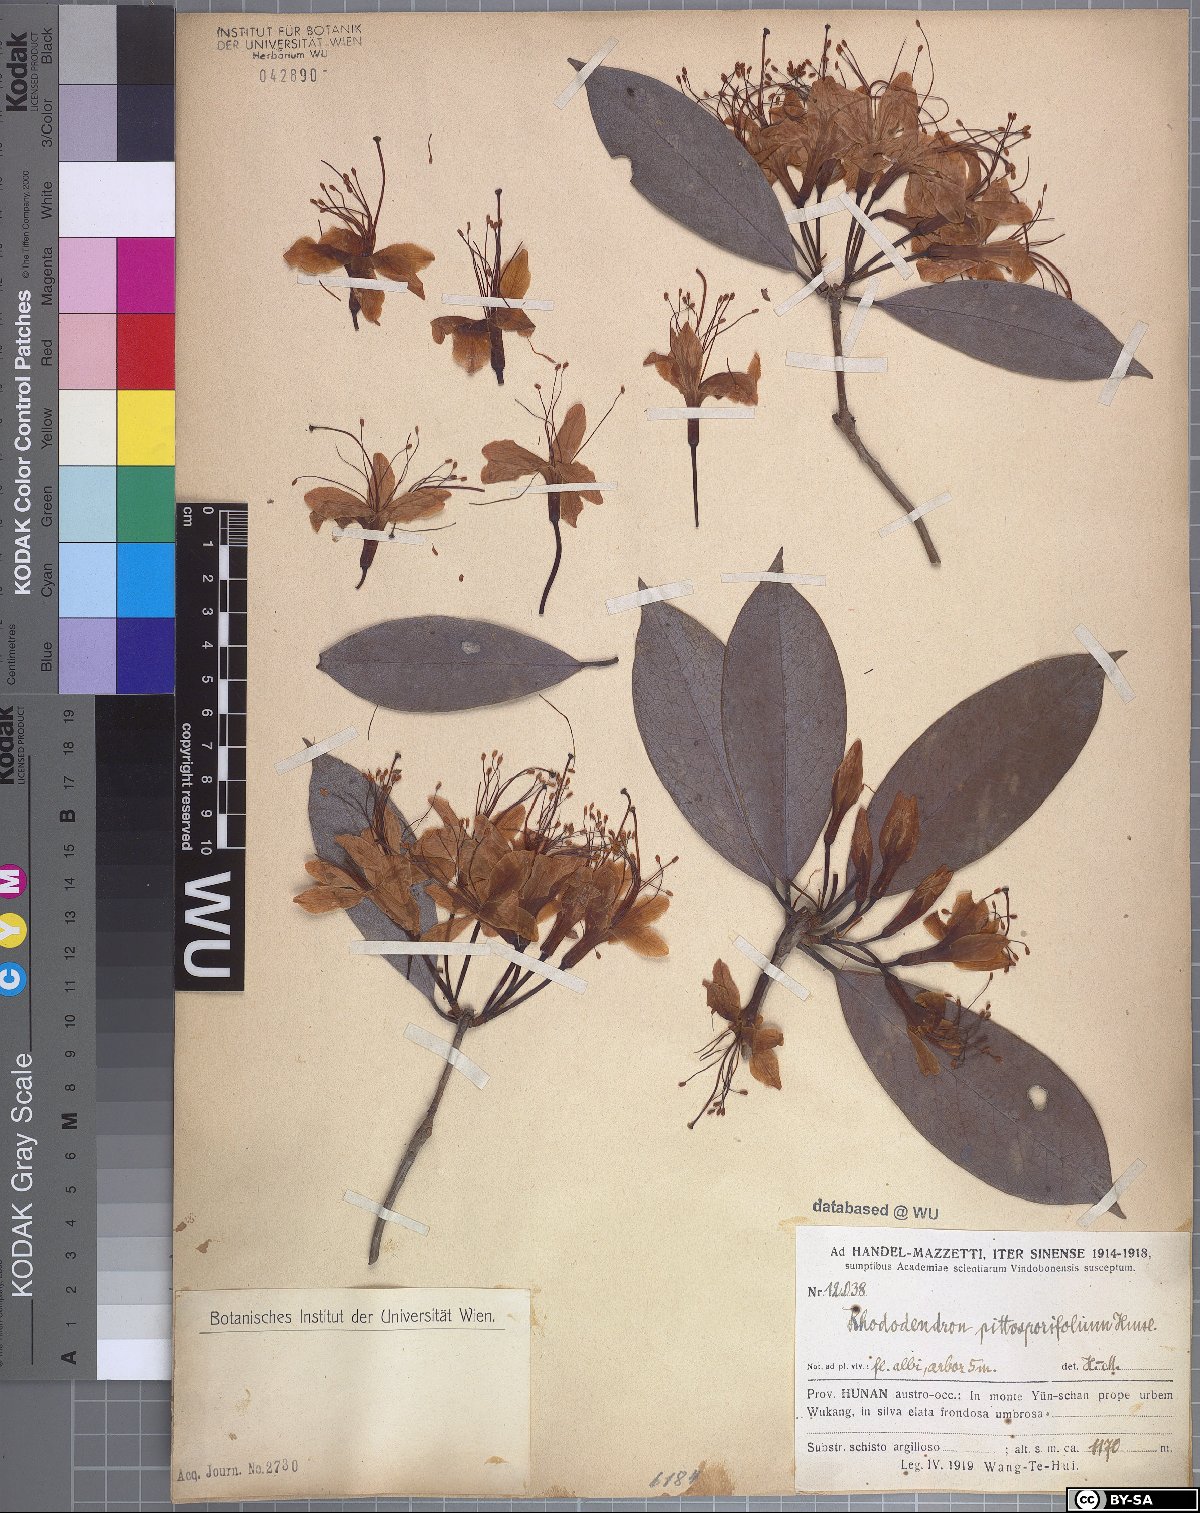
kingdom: Plantae
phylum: Tracheophyta
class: Magnoliopsida
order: Ericales
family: Ericaceae
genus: Rhododendron
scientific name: Rhododendron stamineum
